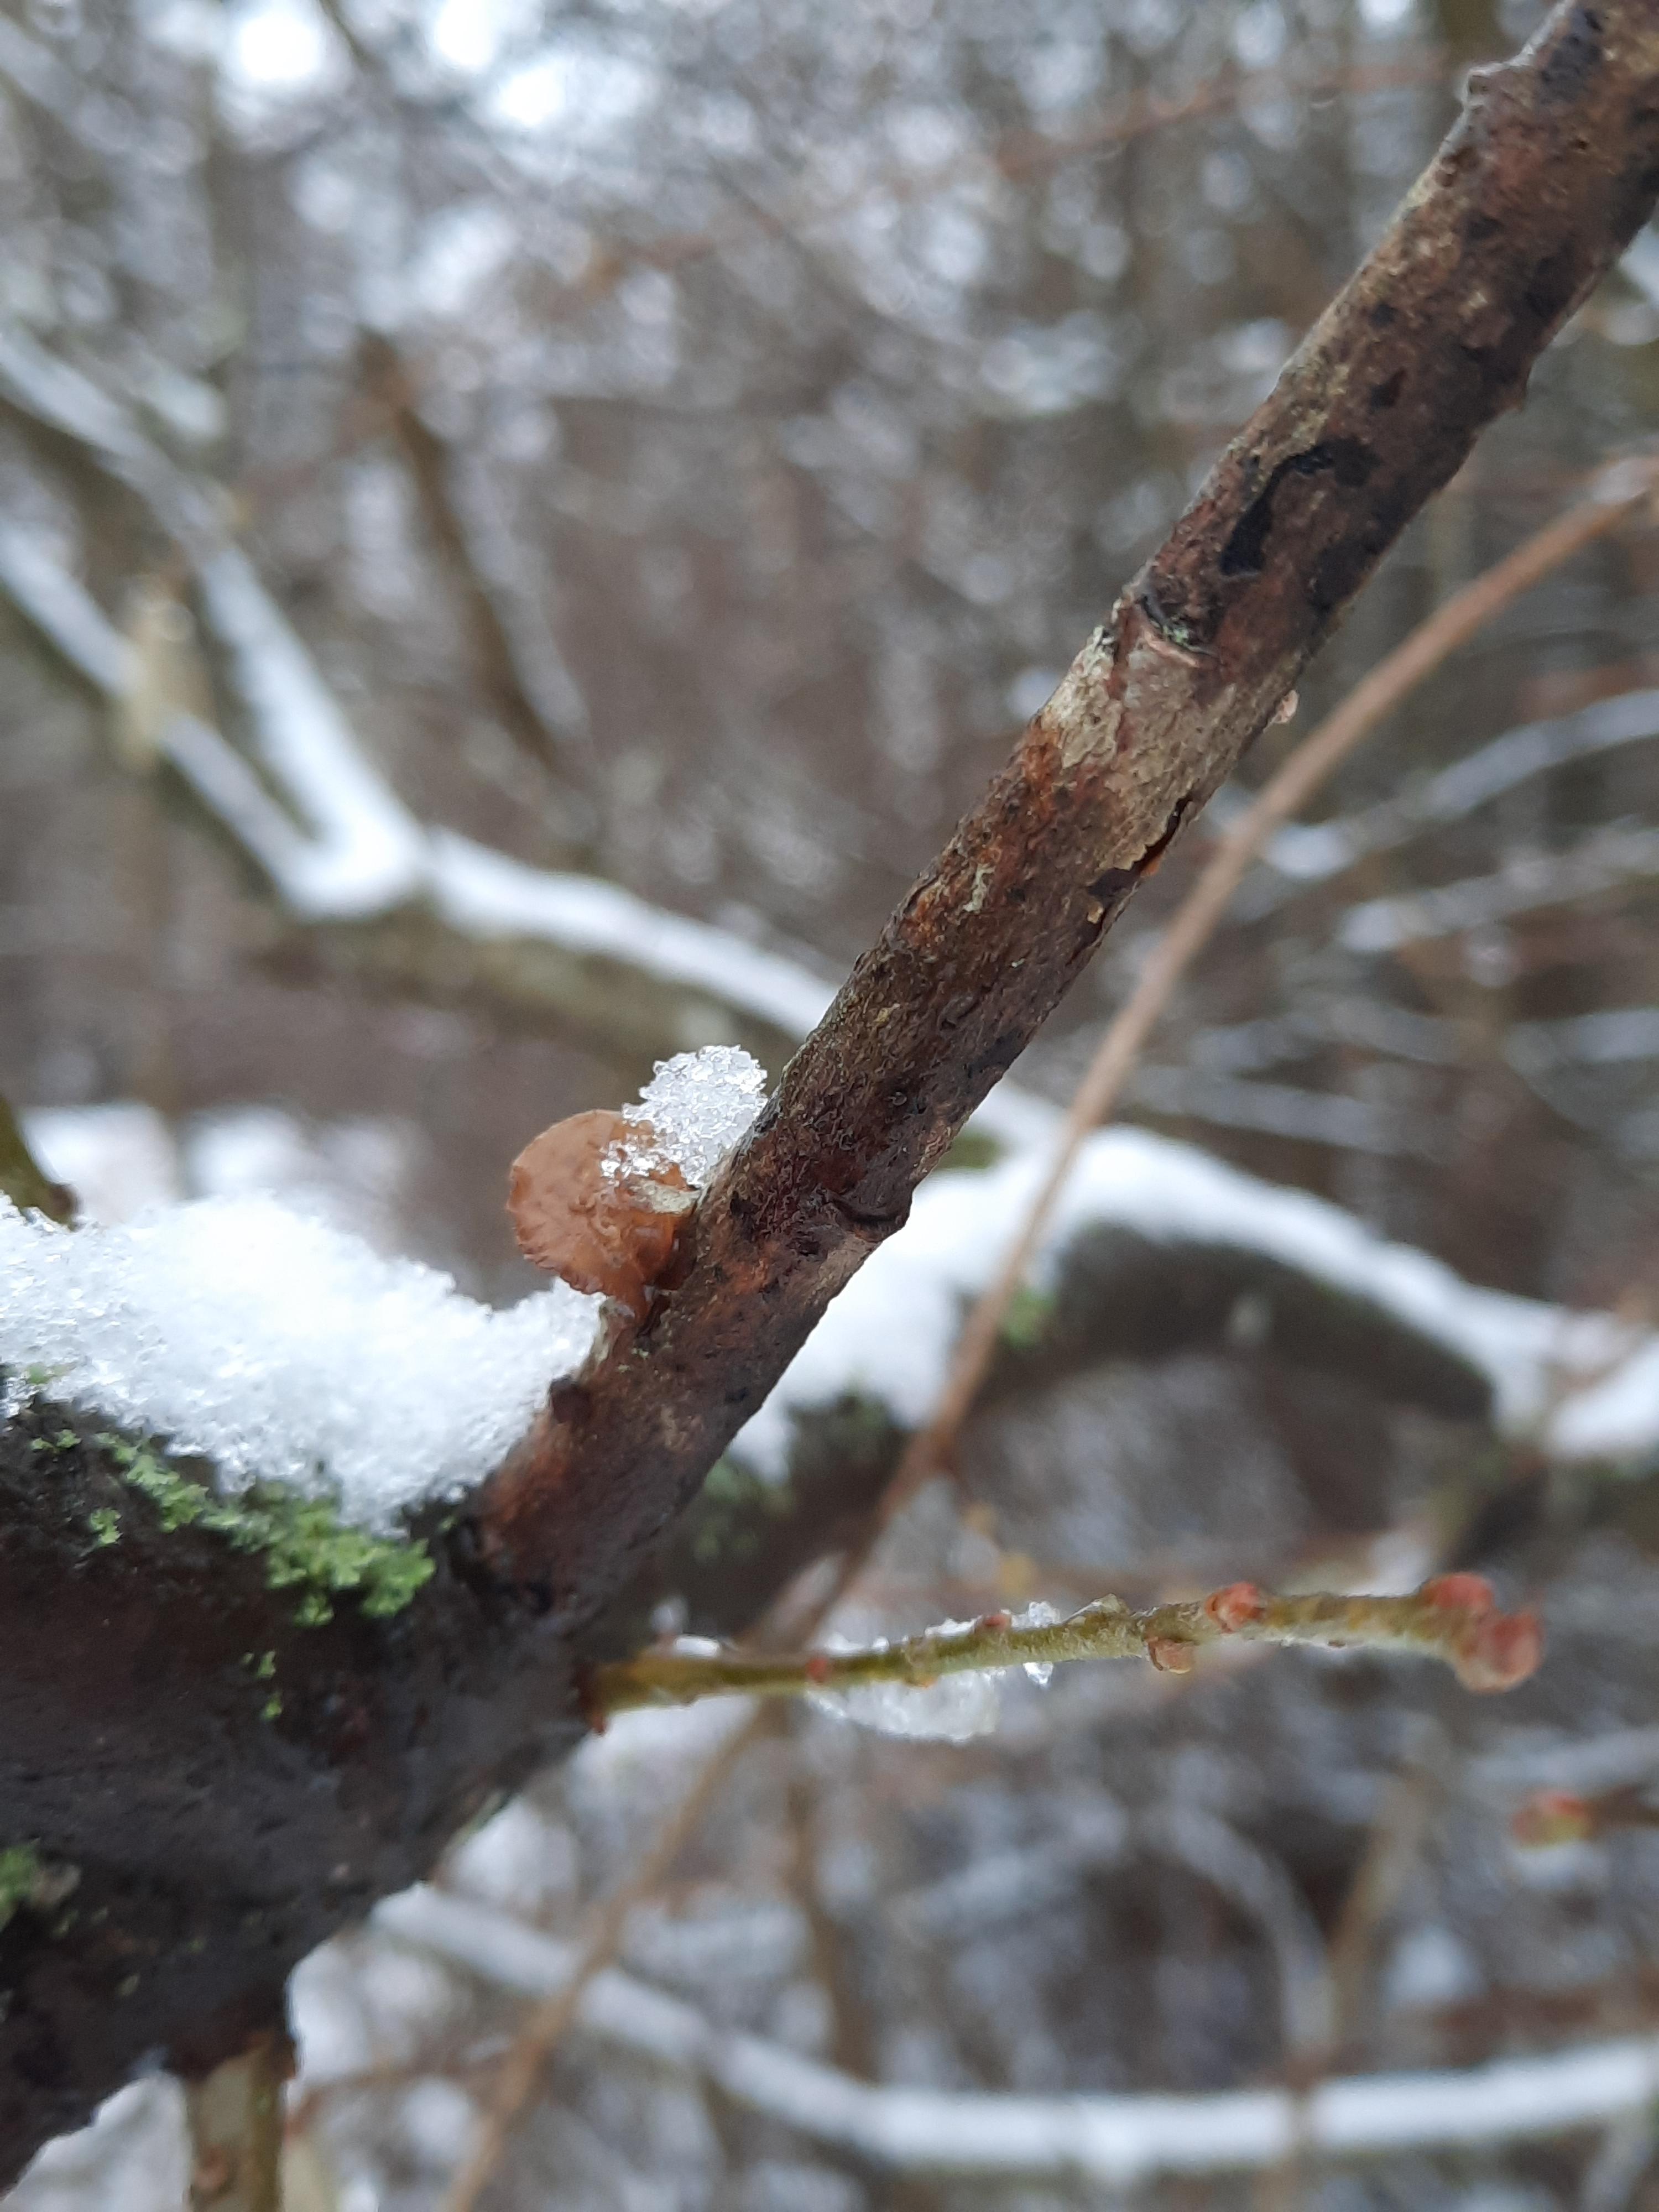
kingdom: Fungi
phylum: Basidiomycota
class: Agaricomycetes
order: Auriculariales
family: Auriculariaceae
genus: Exidia
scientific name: Exidia recisa
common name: pile-bævretop
